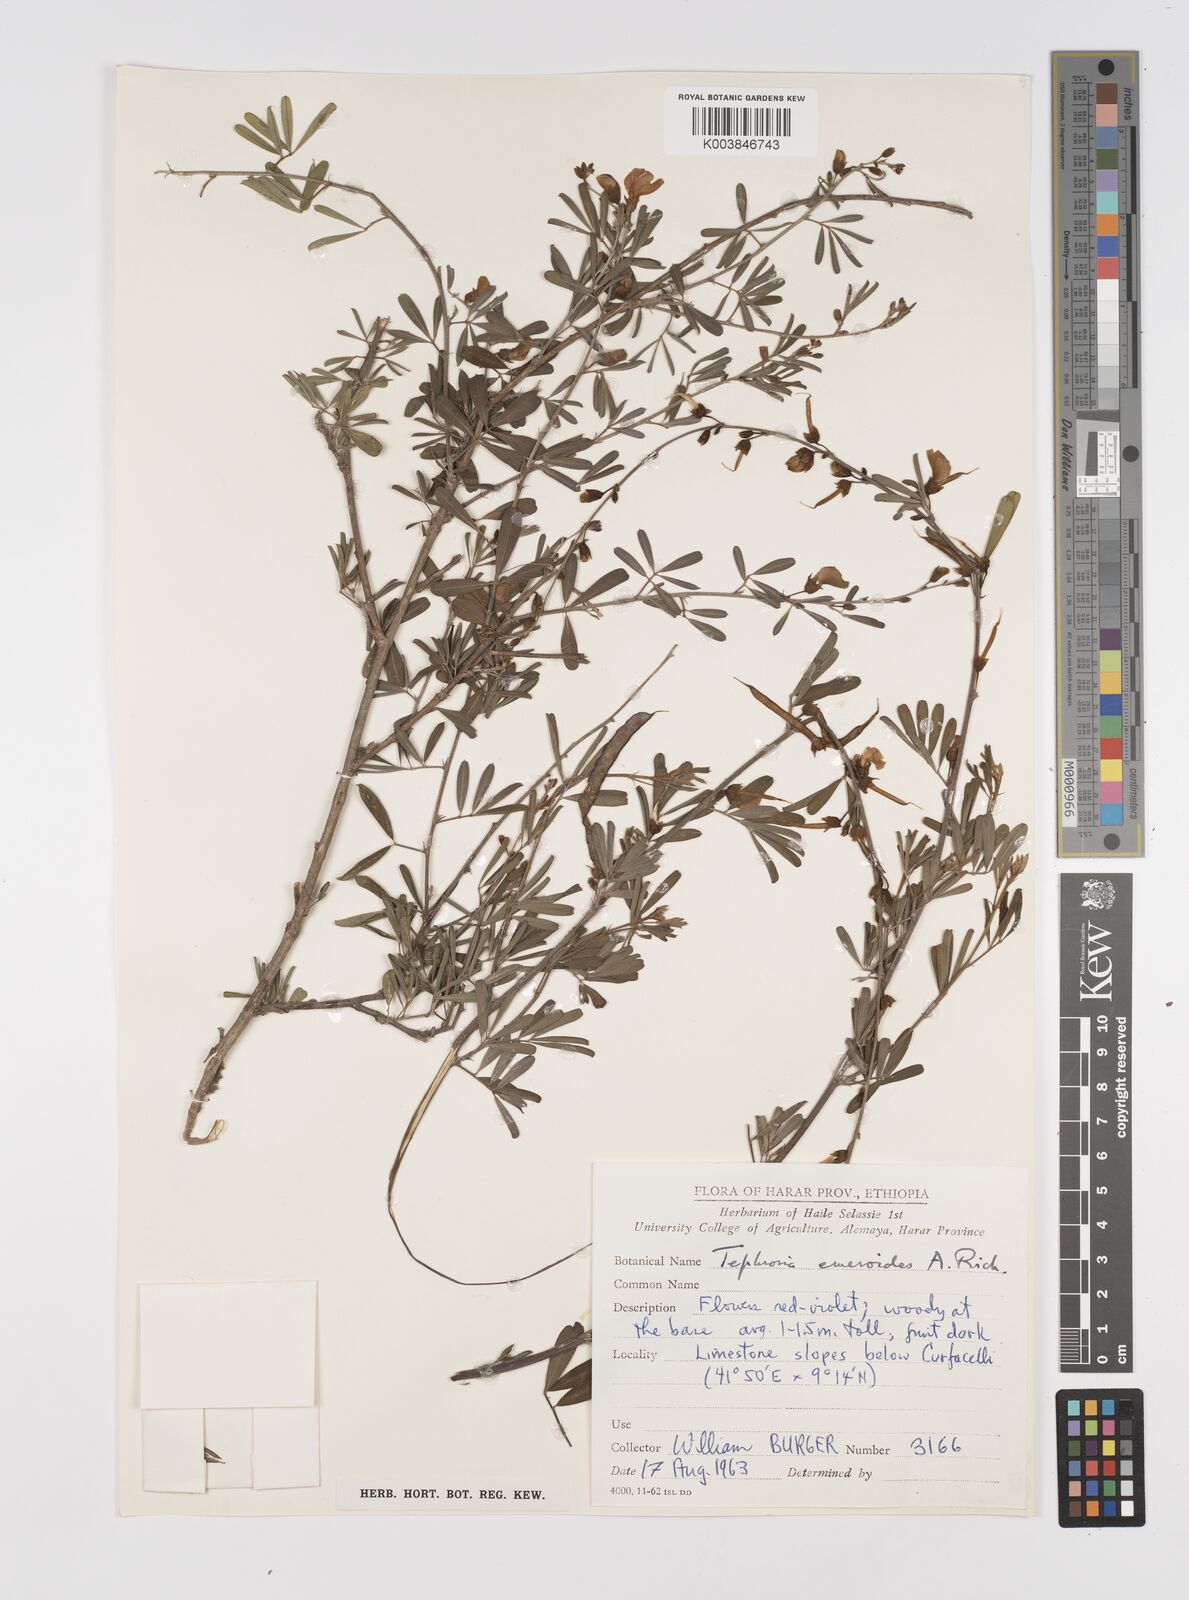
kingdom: Plantae
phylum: Tracheophyta
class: Magnoliopsida
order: Fabales
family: Fabaceae
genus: Tephrosia
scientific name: Tephrosia emeroides
